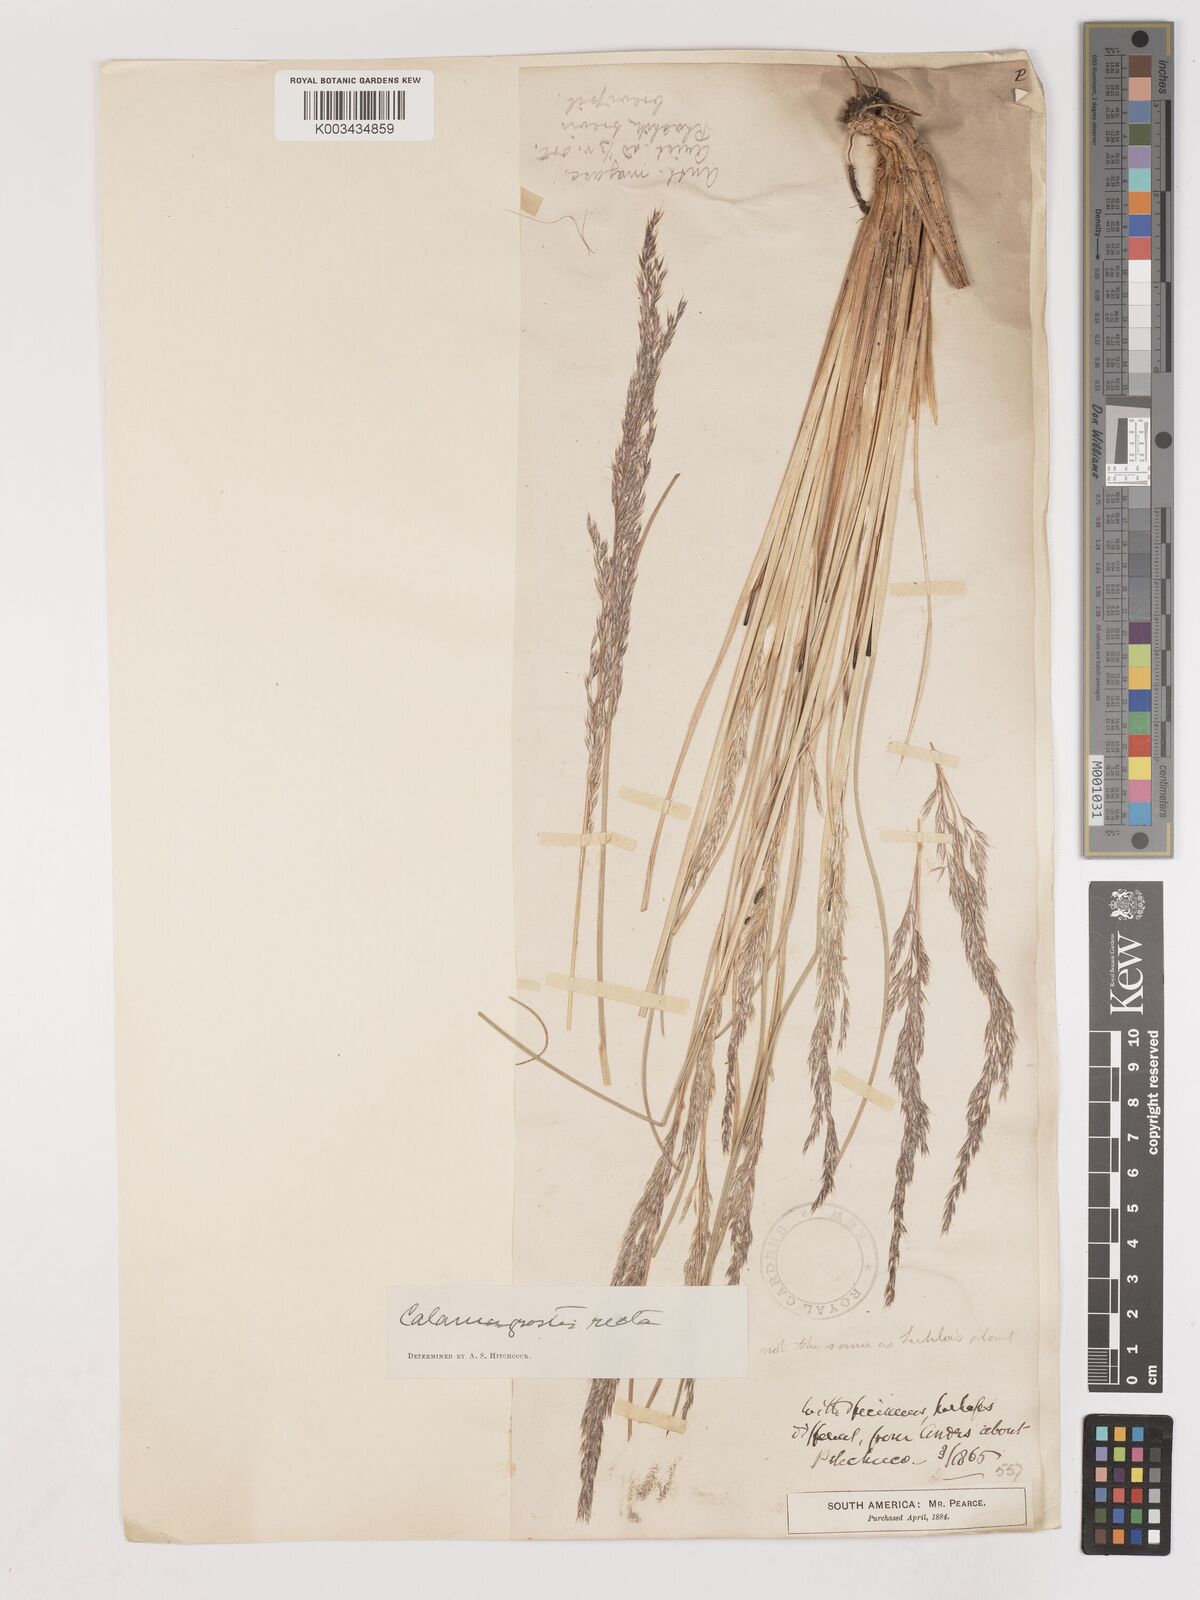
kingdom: Plantae
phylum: Tracheophyta
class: Liliopsida
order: Poales
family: Poaceae
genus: Cinnagrostis
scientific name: Cinnagrostis recta
